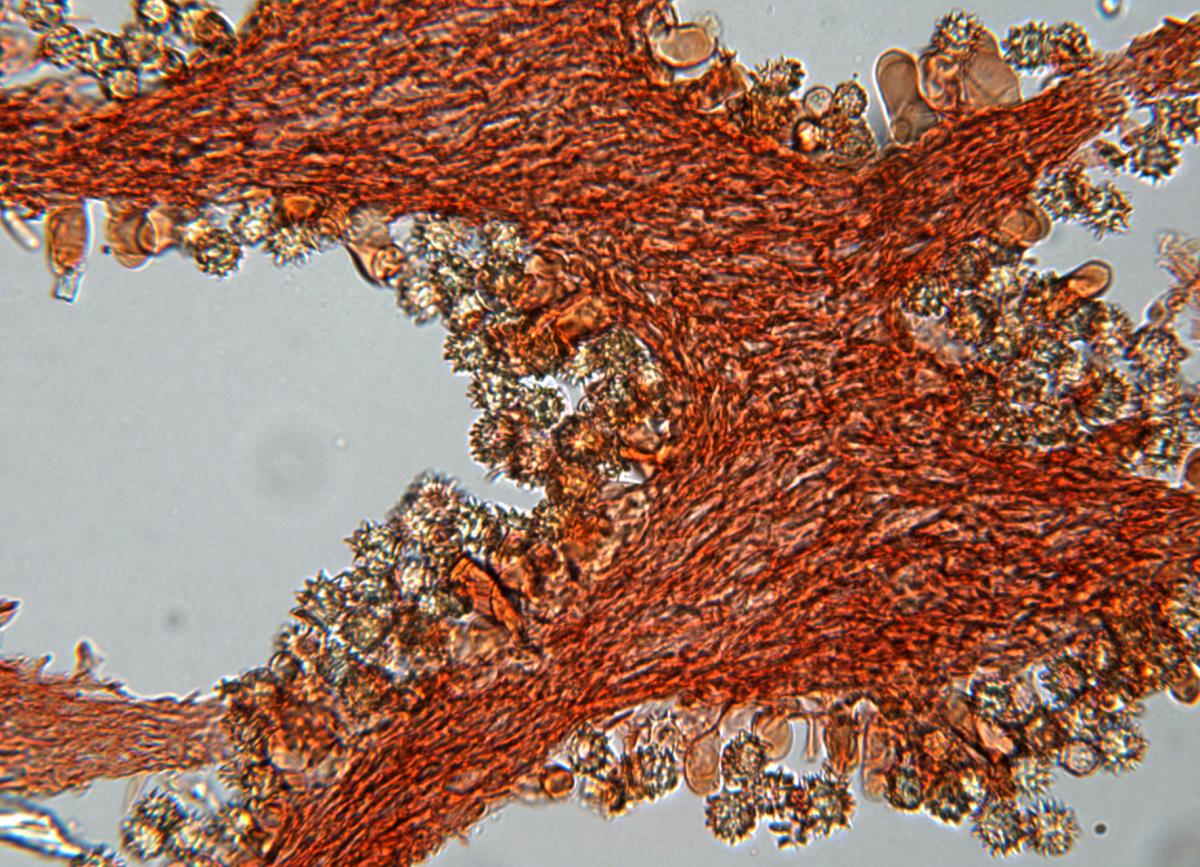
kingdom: Fungi
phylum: Basidiomycota
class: Agaricomycetes
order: Agaricales
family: Stephanosporaceae
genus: Stephanospora
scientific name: Stephanospora aorangi
